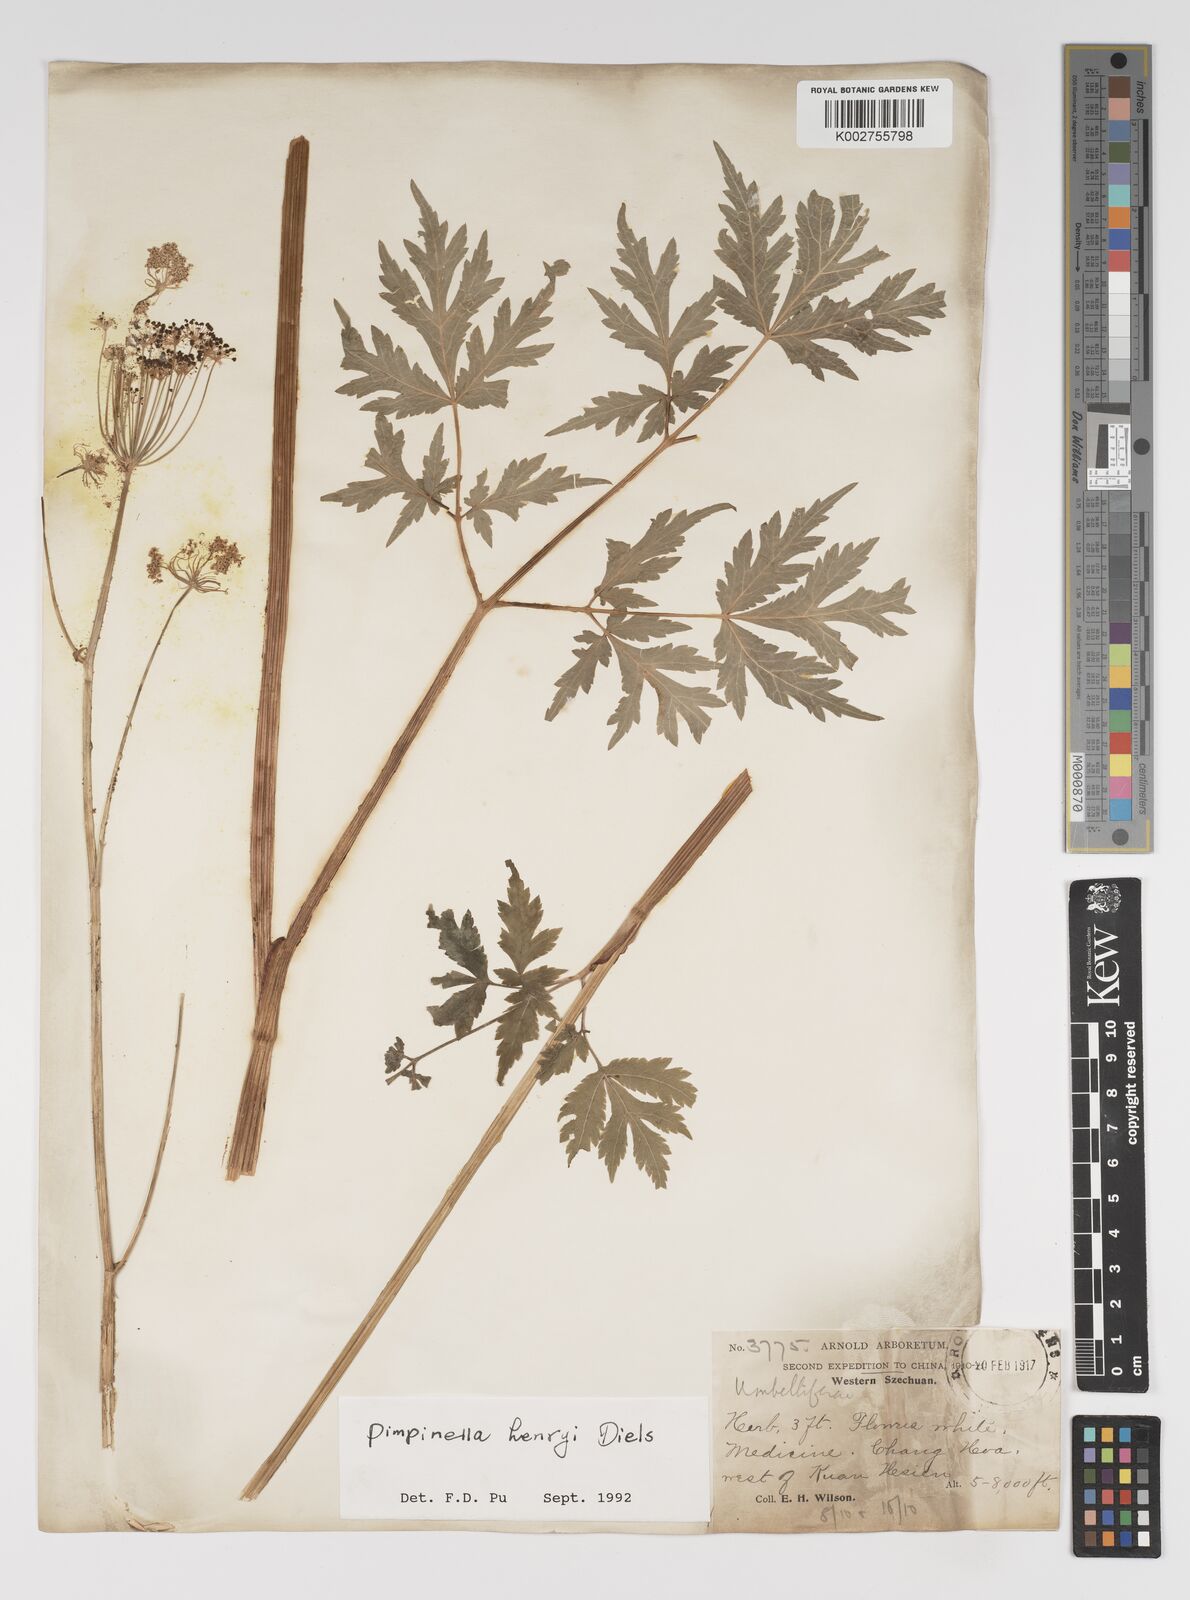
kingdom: Plantae
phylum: Tracheophyta
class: Magnoliopsida
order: Apiales
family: Apiaceae
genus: Pimpinella
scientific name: Pimpinella henryi
